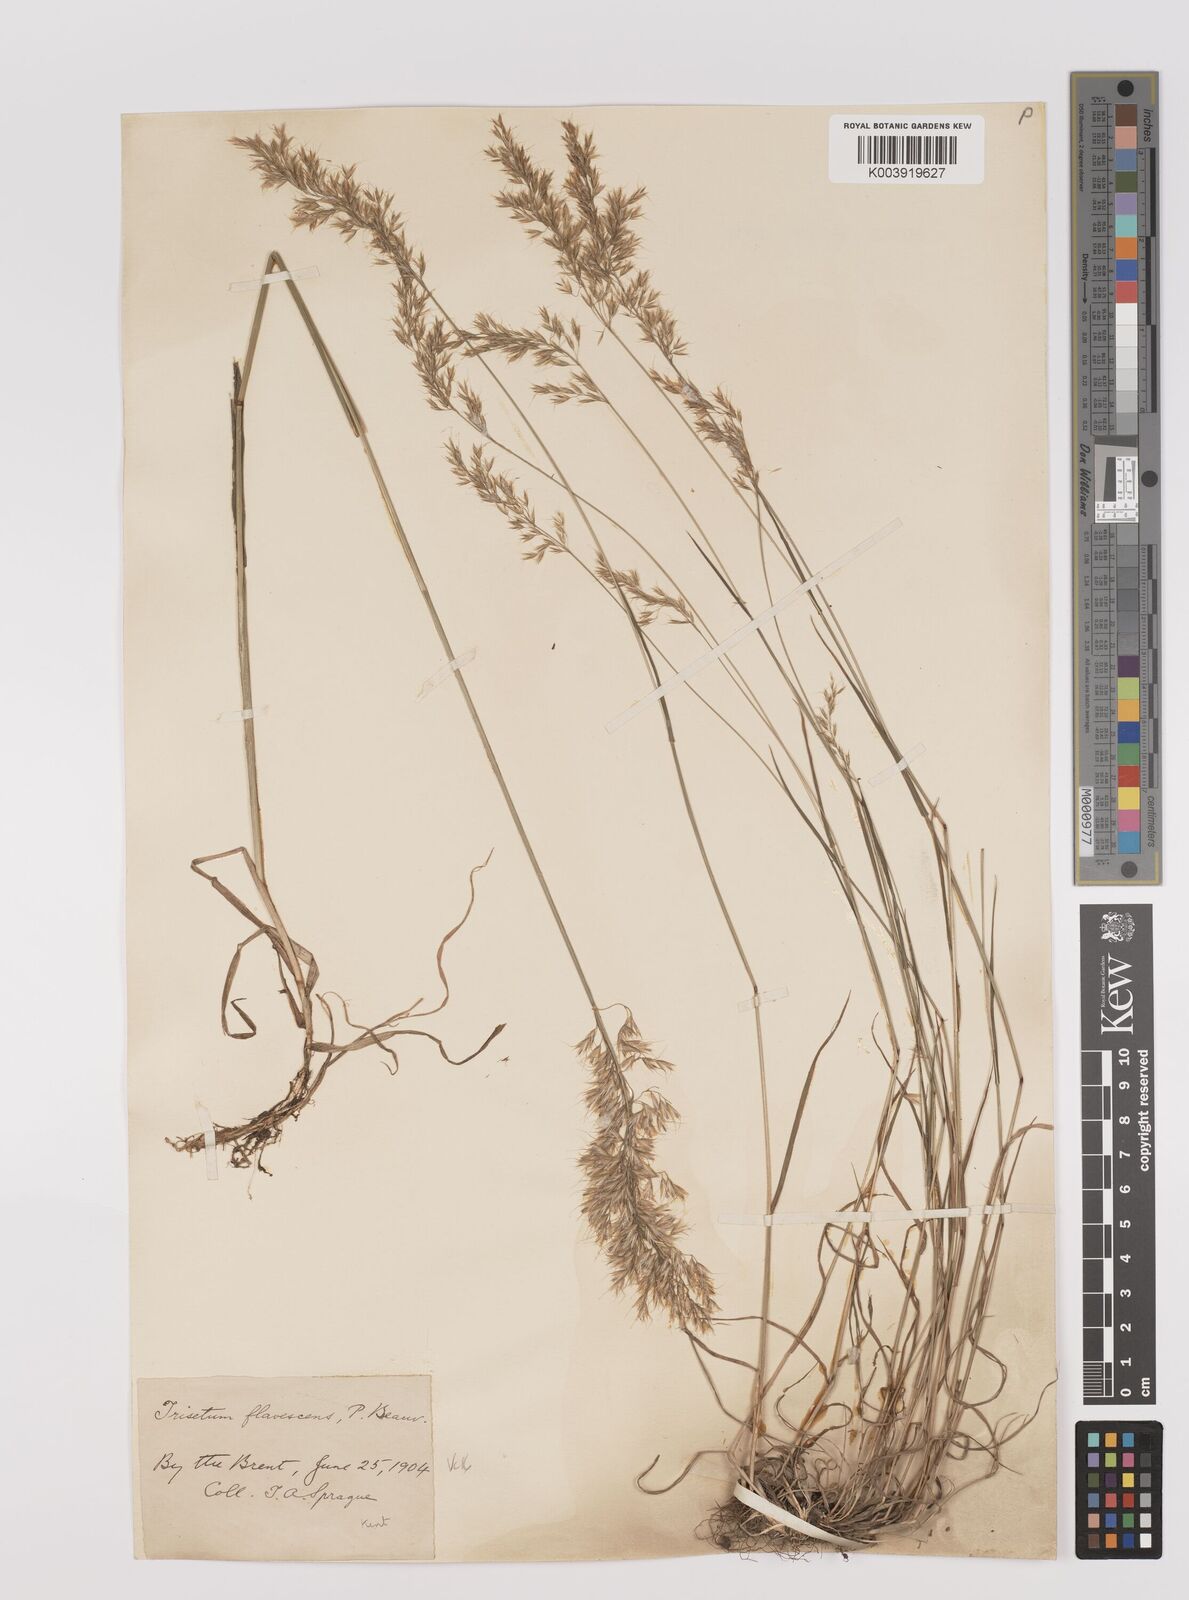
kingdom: Plantae
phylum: Tracheophyta
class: Liliopsida
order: Poales
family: Poaceae
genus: Trisetum
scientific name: Trisetum flavescens
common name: Yellow oat-grass
